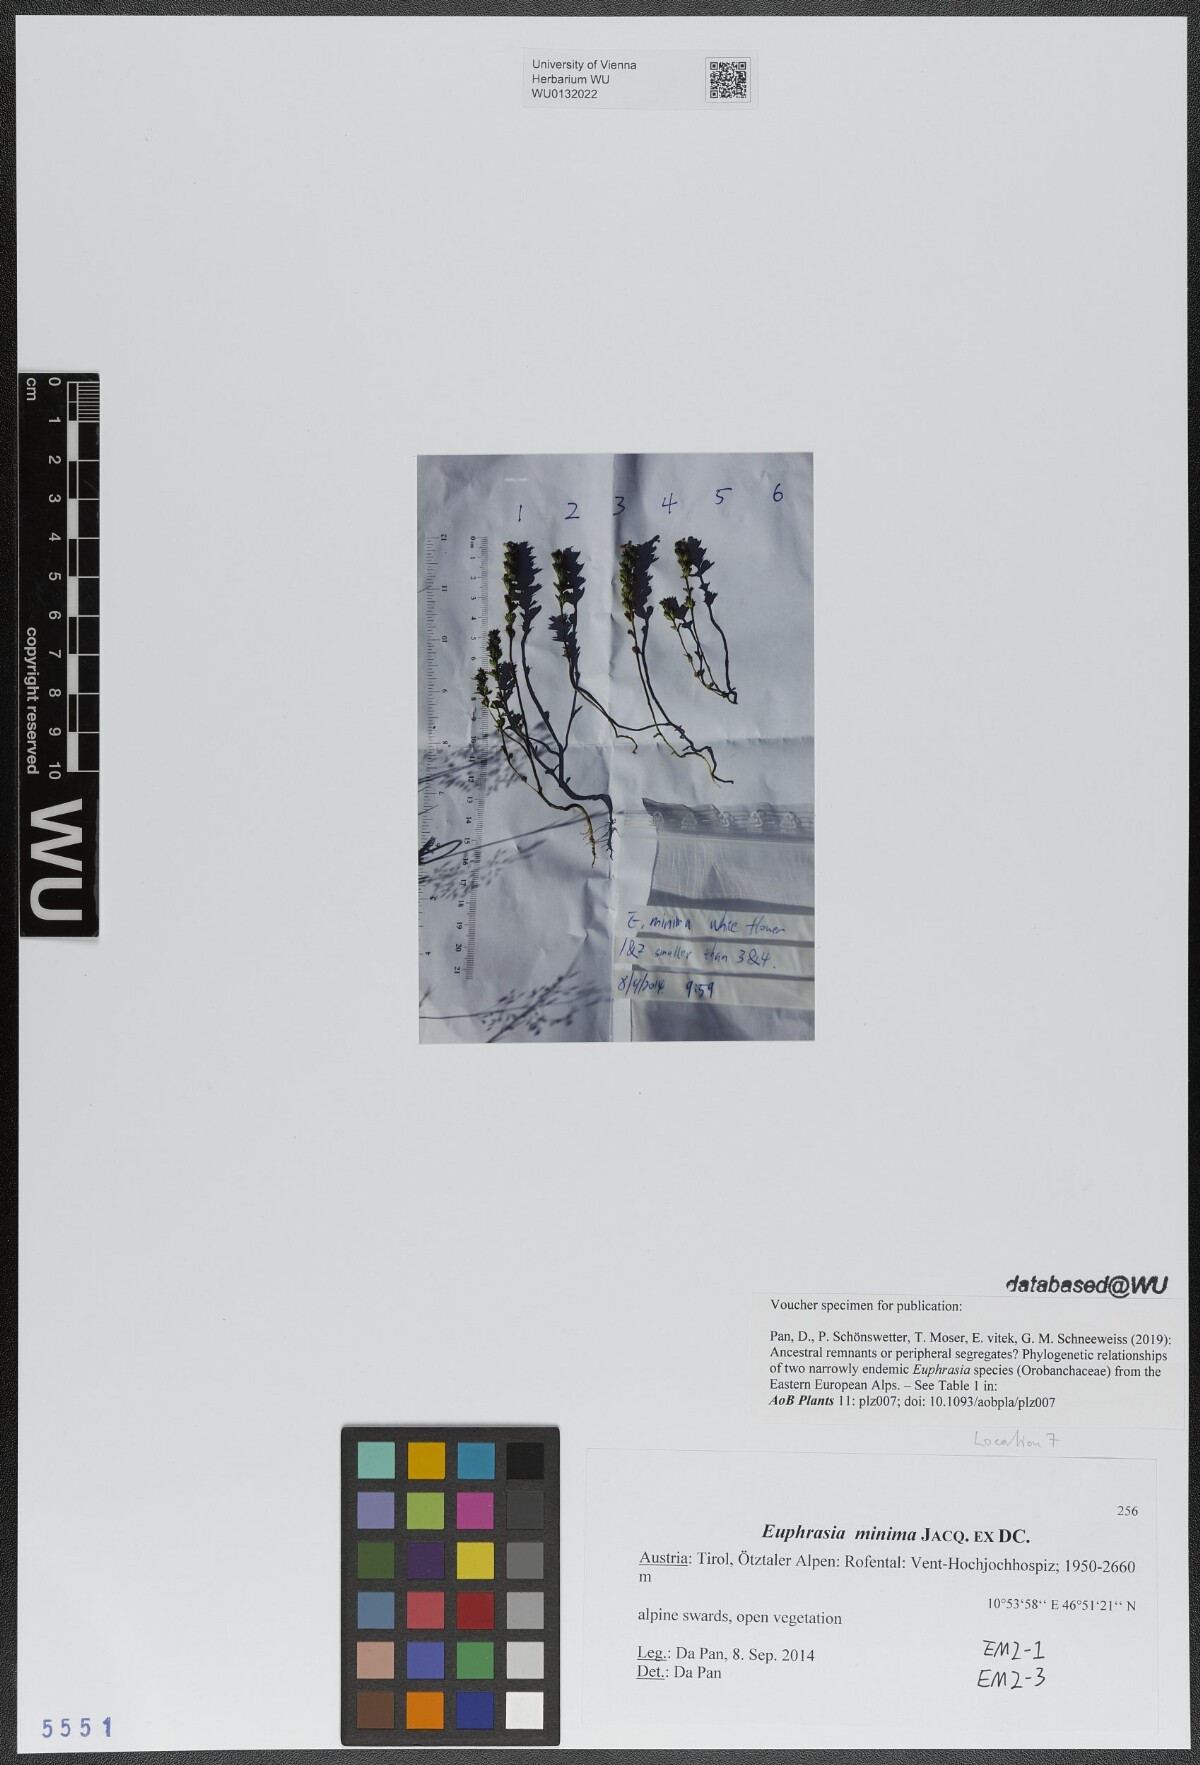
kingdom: Plantae
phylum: Tracheophyta
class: Magnoliopsida
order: Lamiales
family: Orobanchaceae
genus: Euphrasia
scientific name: Euphrasia minima
